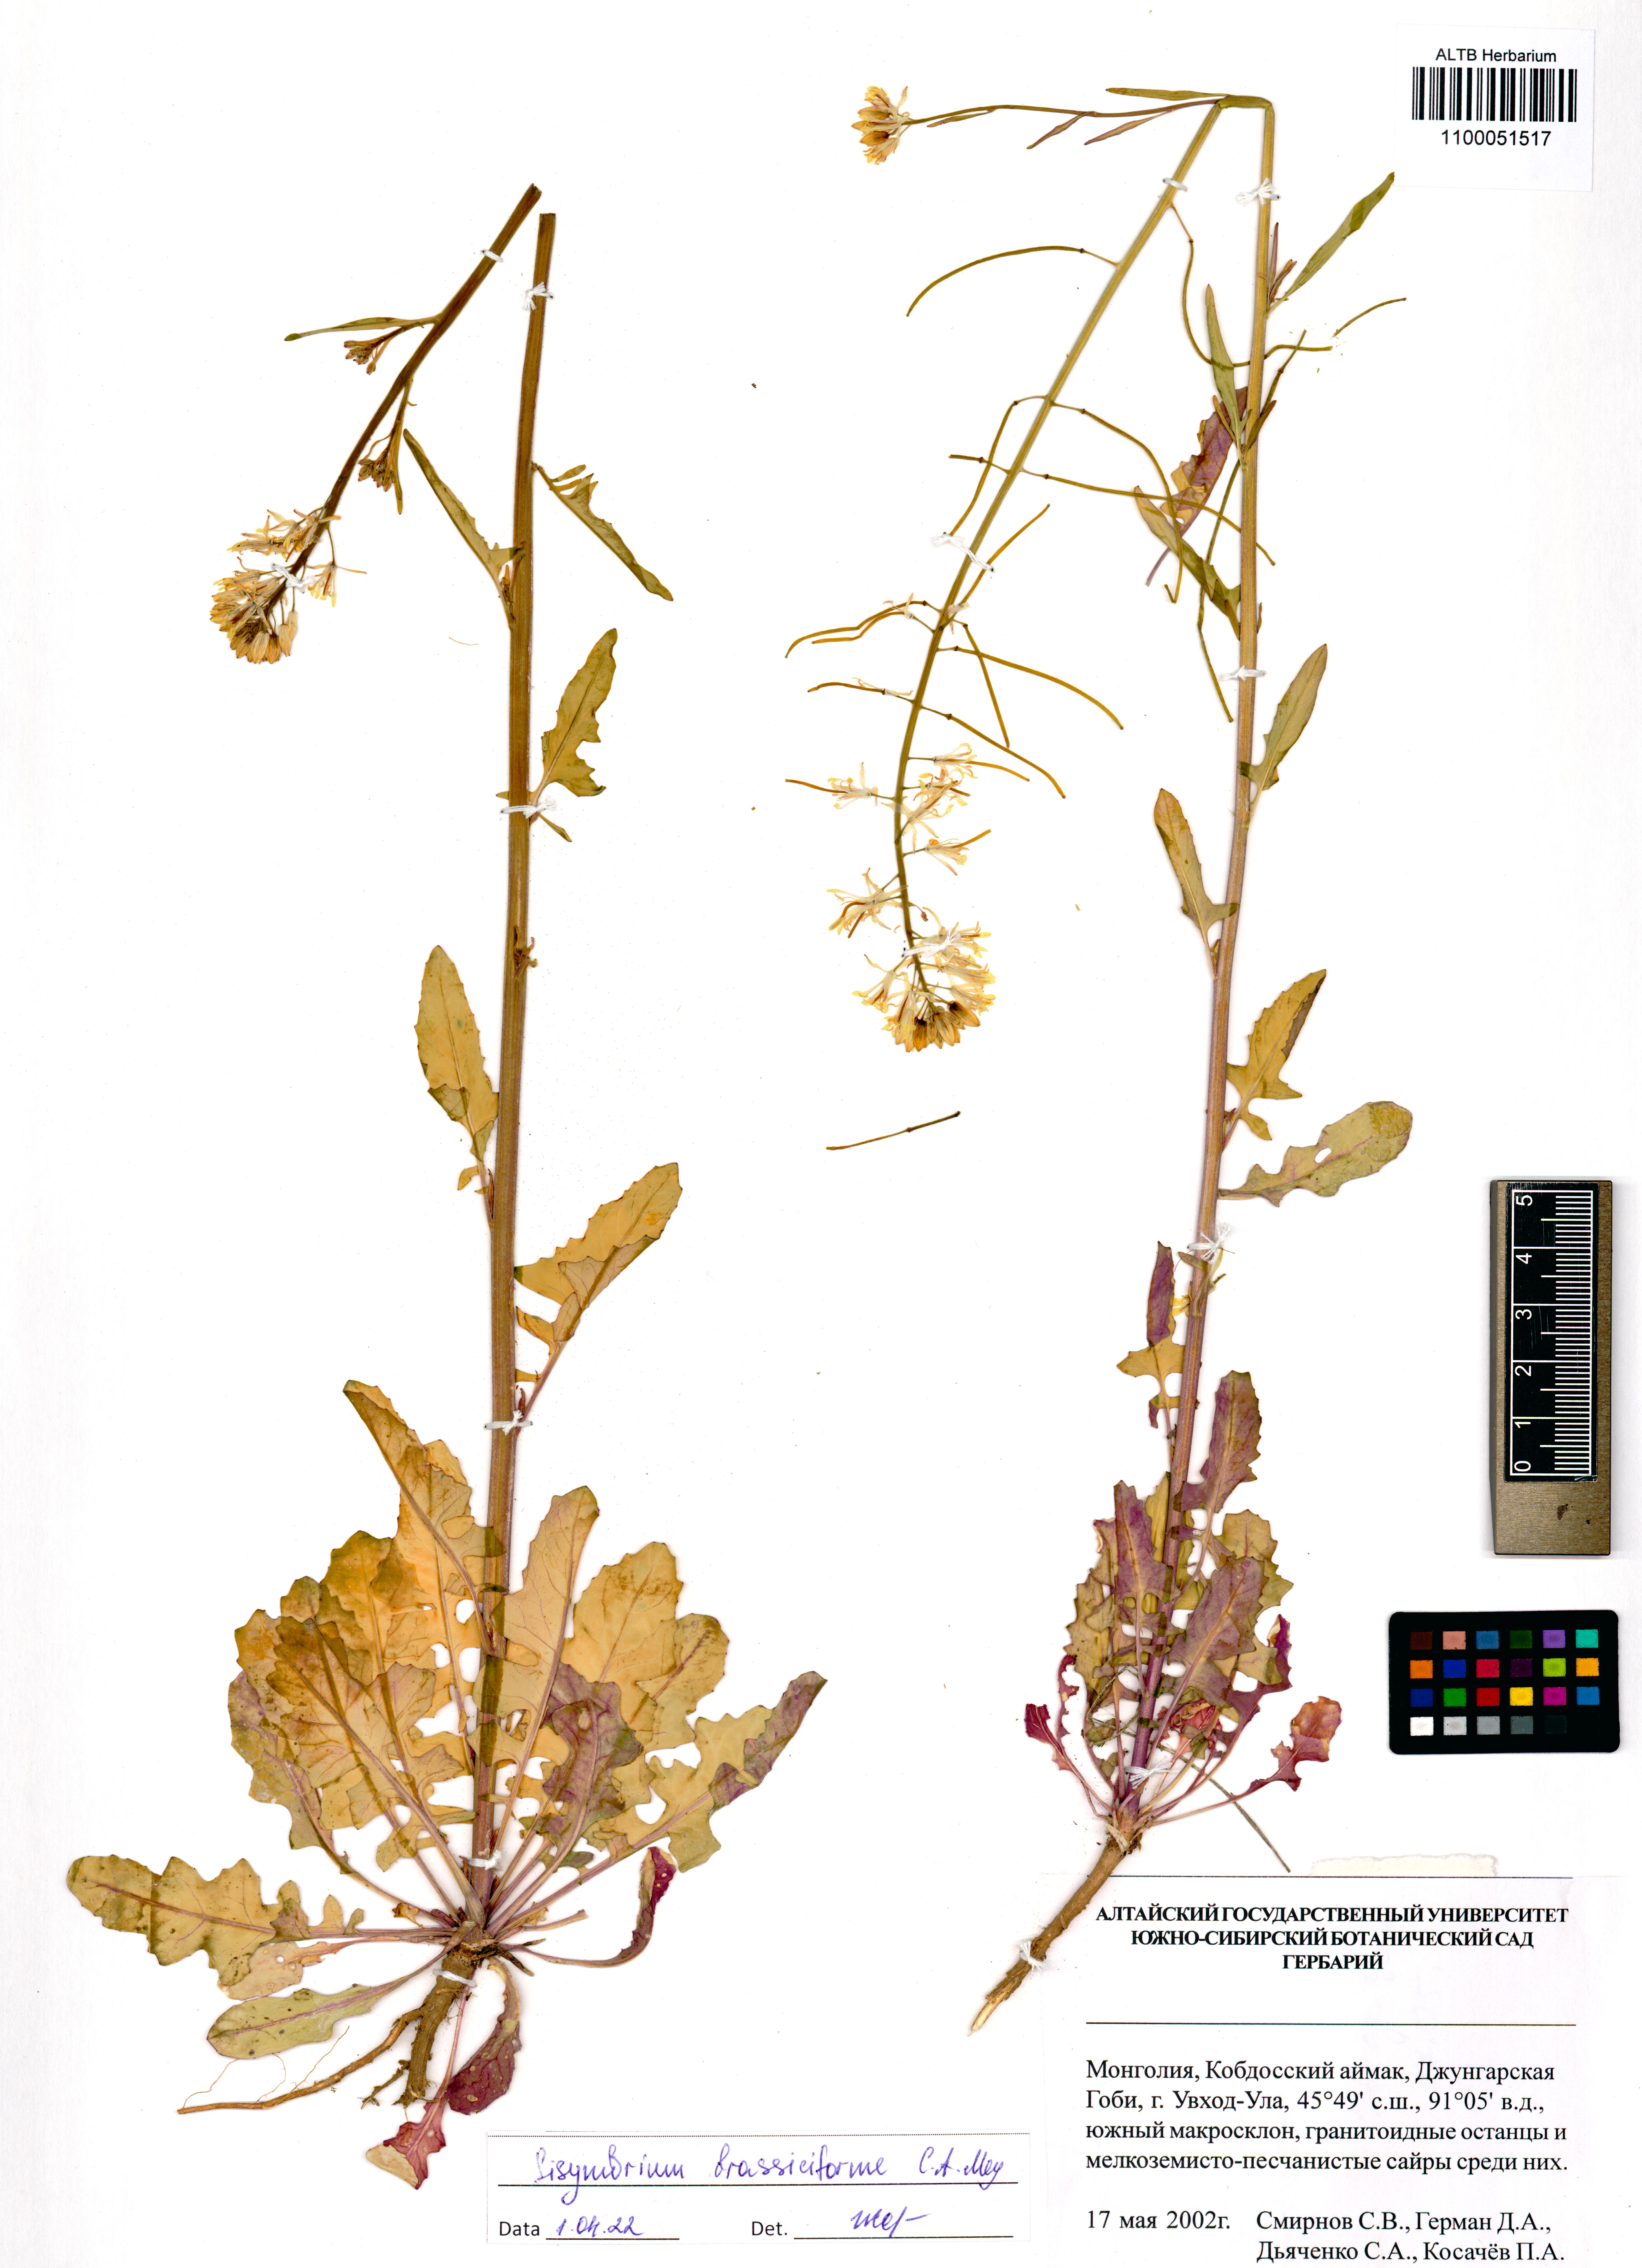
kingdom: Plantae
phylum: Tracheophyta
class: Magnoliopsida
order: Brassicales
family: Brassicaceae
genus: Sisymbrium
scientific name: Sisymbrium brassiciforme
